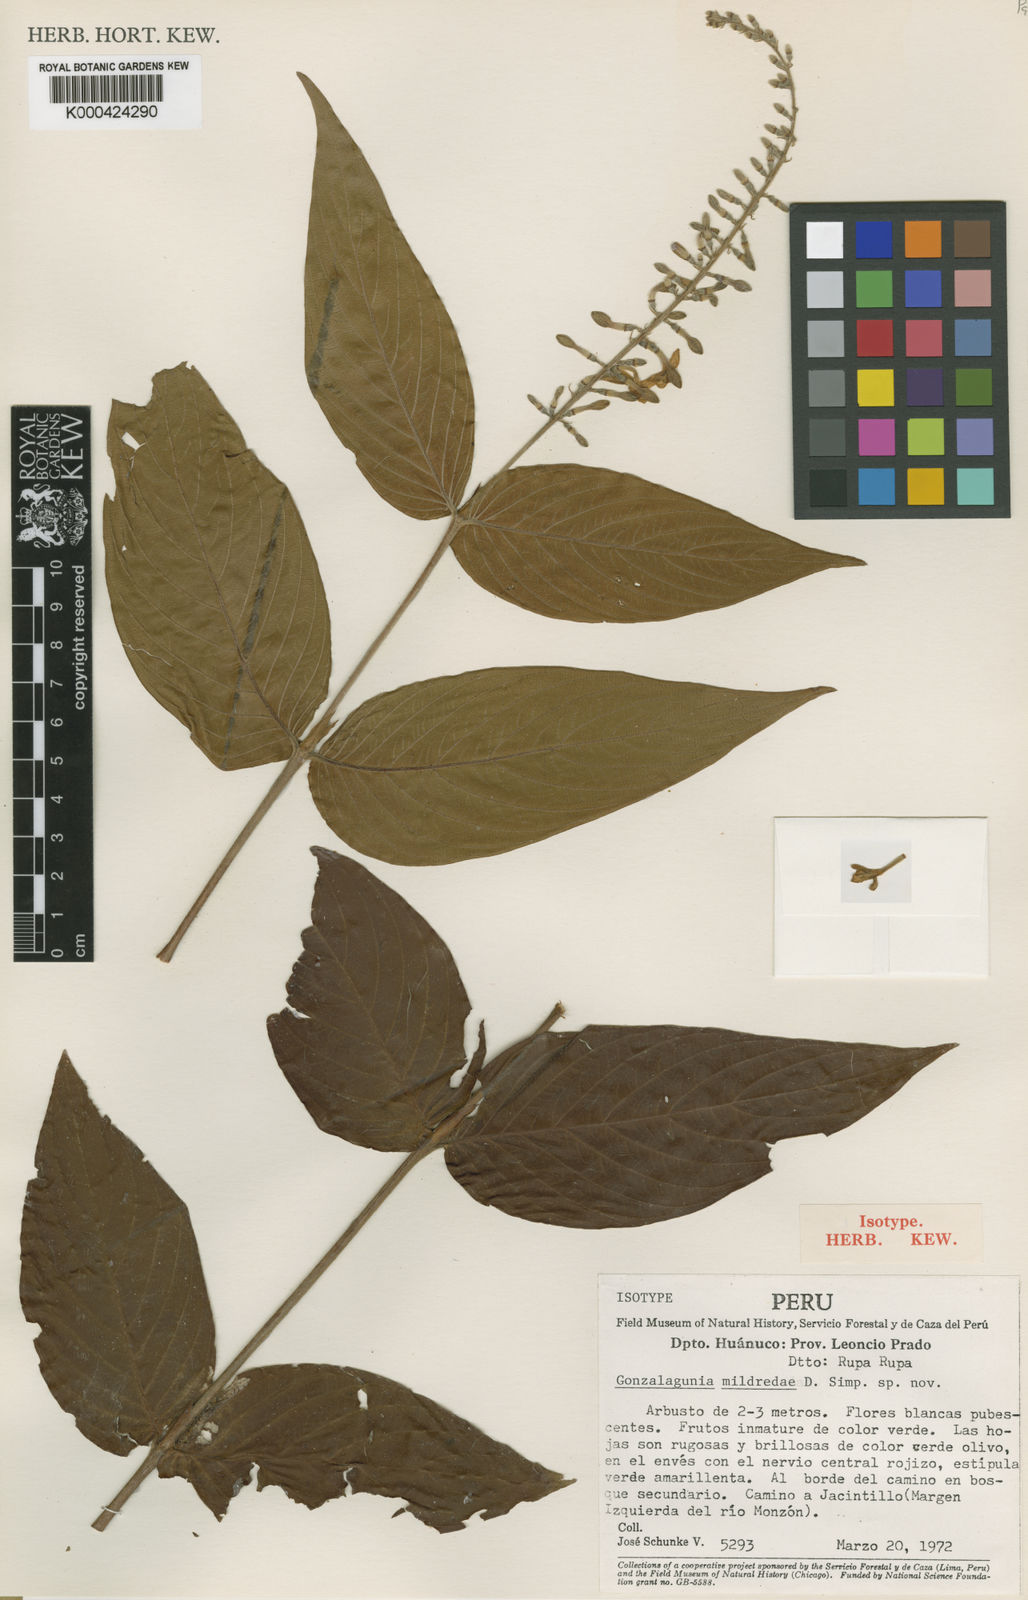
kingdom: Plantae
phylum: Tracheophyta
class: Magnoliopsida
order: Gentianales
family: Rubiaceae
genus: Gonzalagunia
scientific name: Gonzalagunia mildredae
